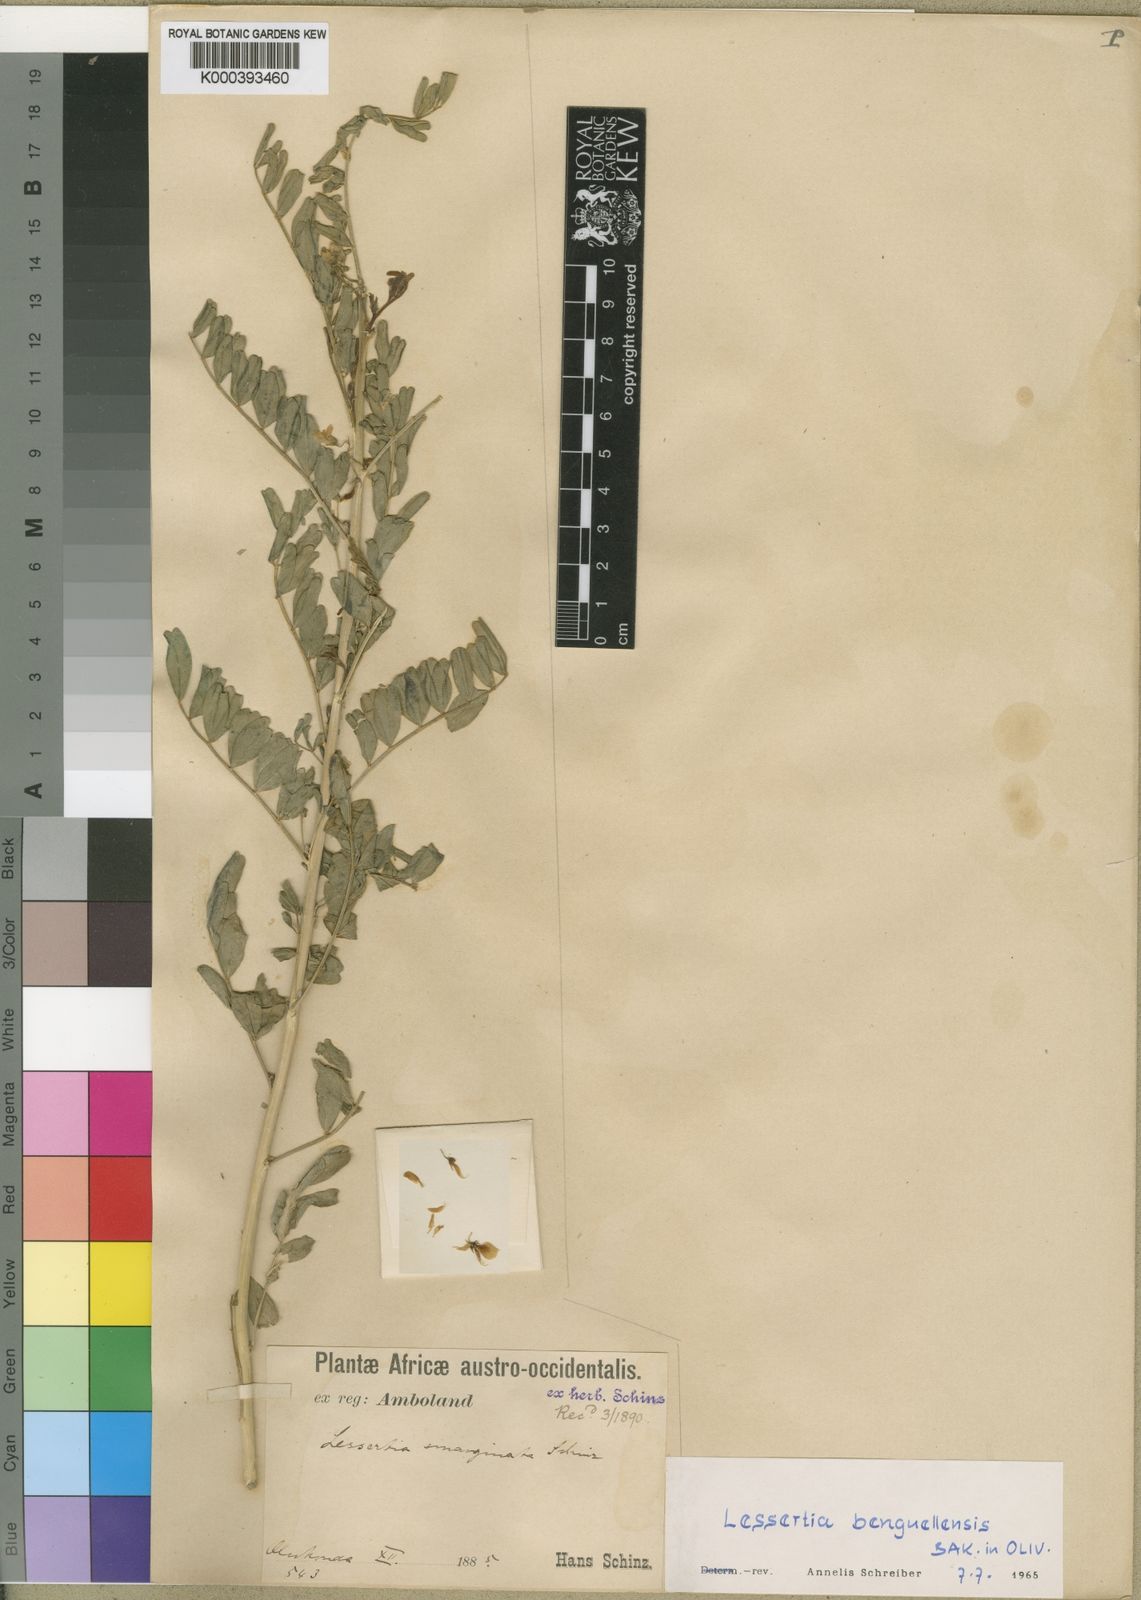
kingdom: Plantae
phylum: Tracheophyta
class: Magnoliopsida
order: Fabales
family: Fabaceae
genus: Lessertia
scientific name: Lessertia benguellensis
